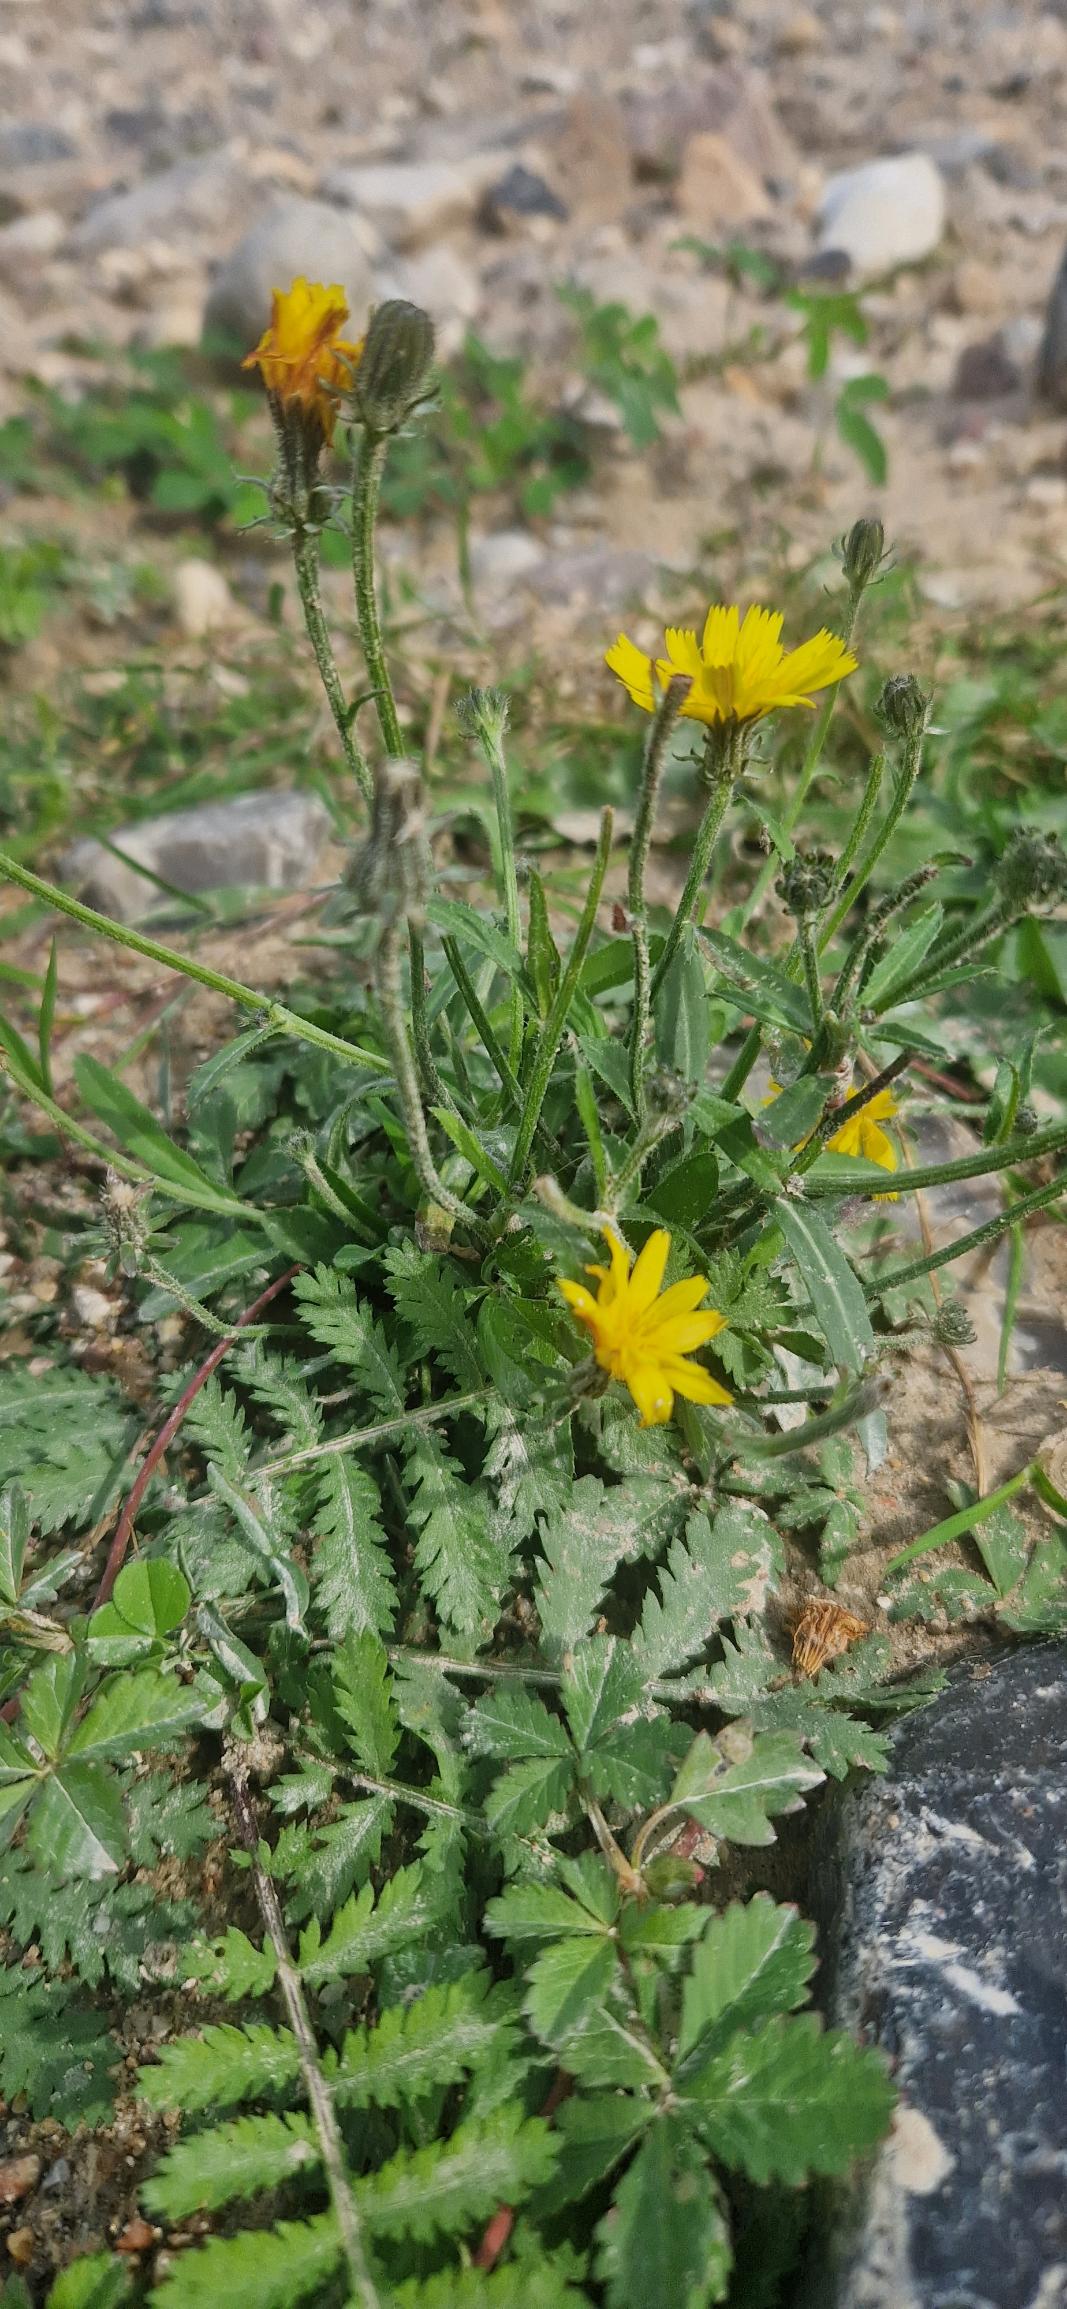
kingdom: Plantae
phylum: Tracheophyta
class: Magnoliopsida
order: Asterales
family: Asteraceae
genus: Picris
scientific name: Picris hieracioides
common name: Ru bittermælk
